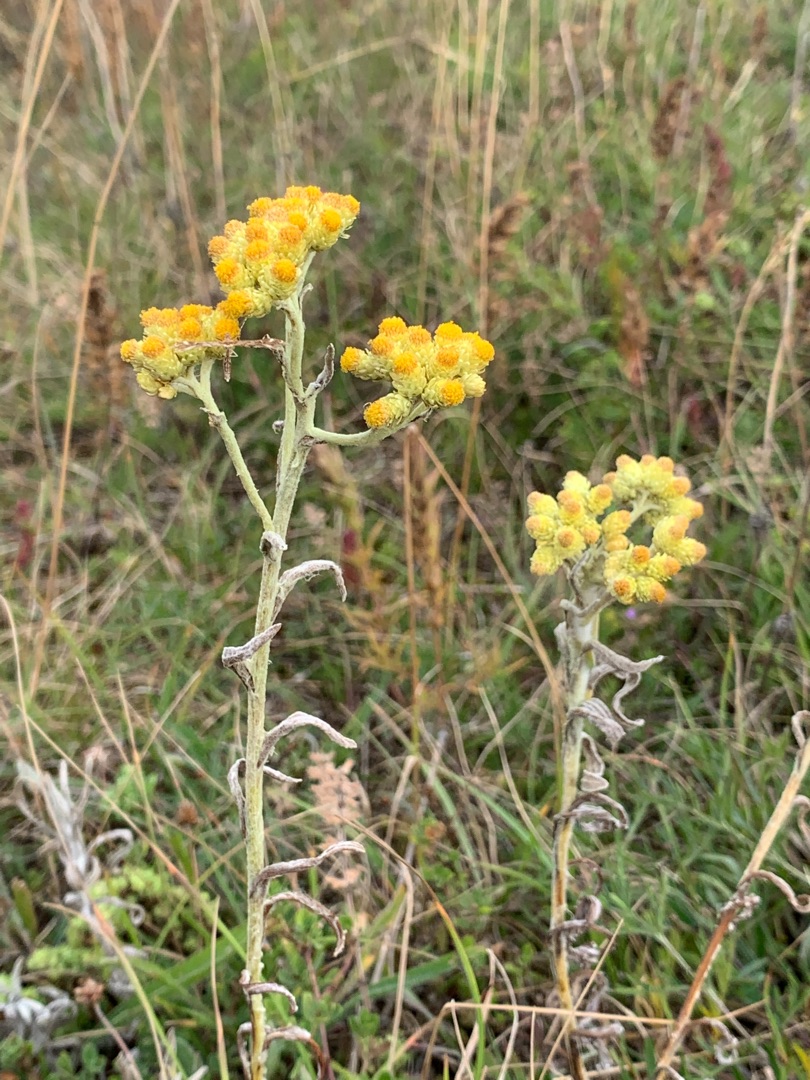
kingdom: Plantae
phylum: Tracheophyta
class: Magnoliopsida
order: Asterales
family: Asteraceae
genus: Helichrysum
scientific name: Helichrysum arenarium
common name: Gul evighedsblomst
